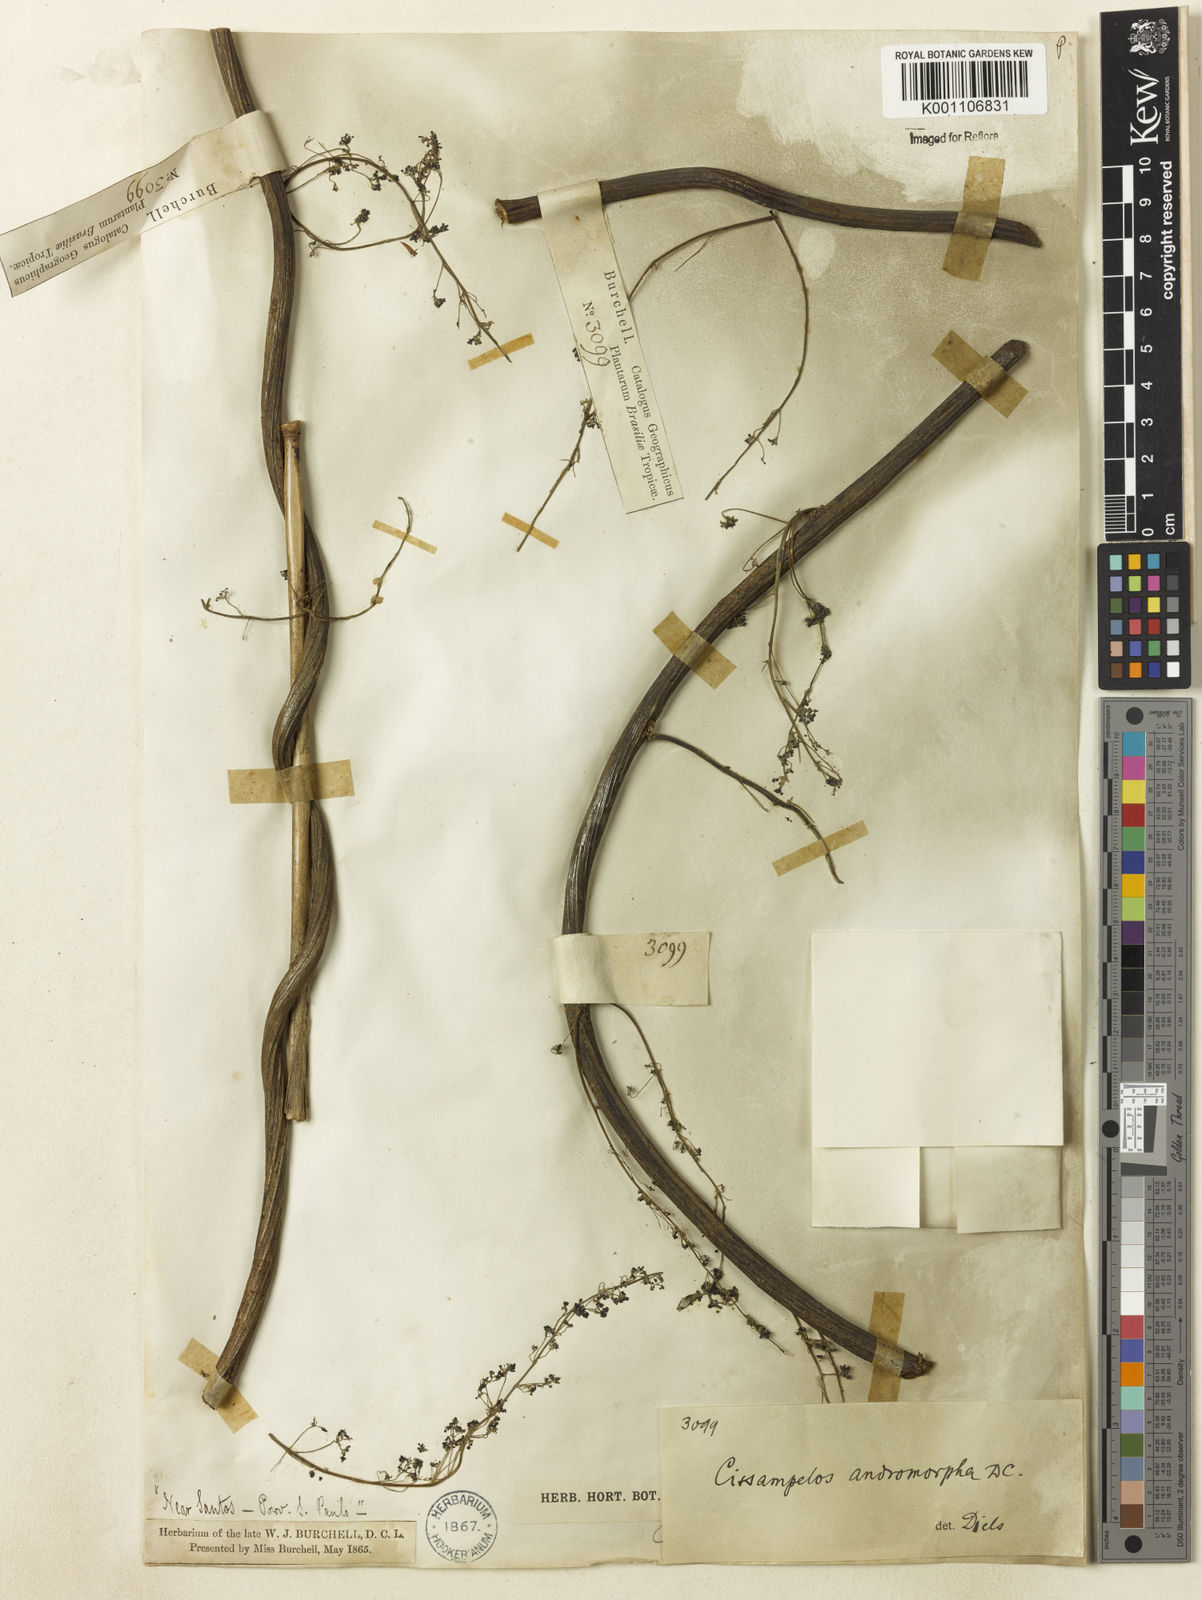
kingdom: Plantae
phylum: Tracheophyta
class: Magnoliopsida
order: Ranunculales
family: Menispermaceae
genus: Cissampelos
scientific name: Cissampelos andromorpha
